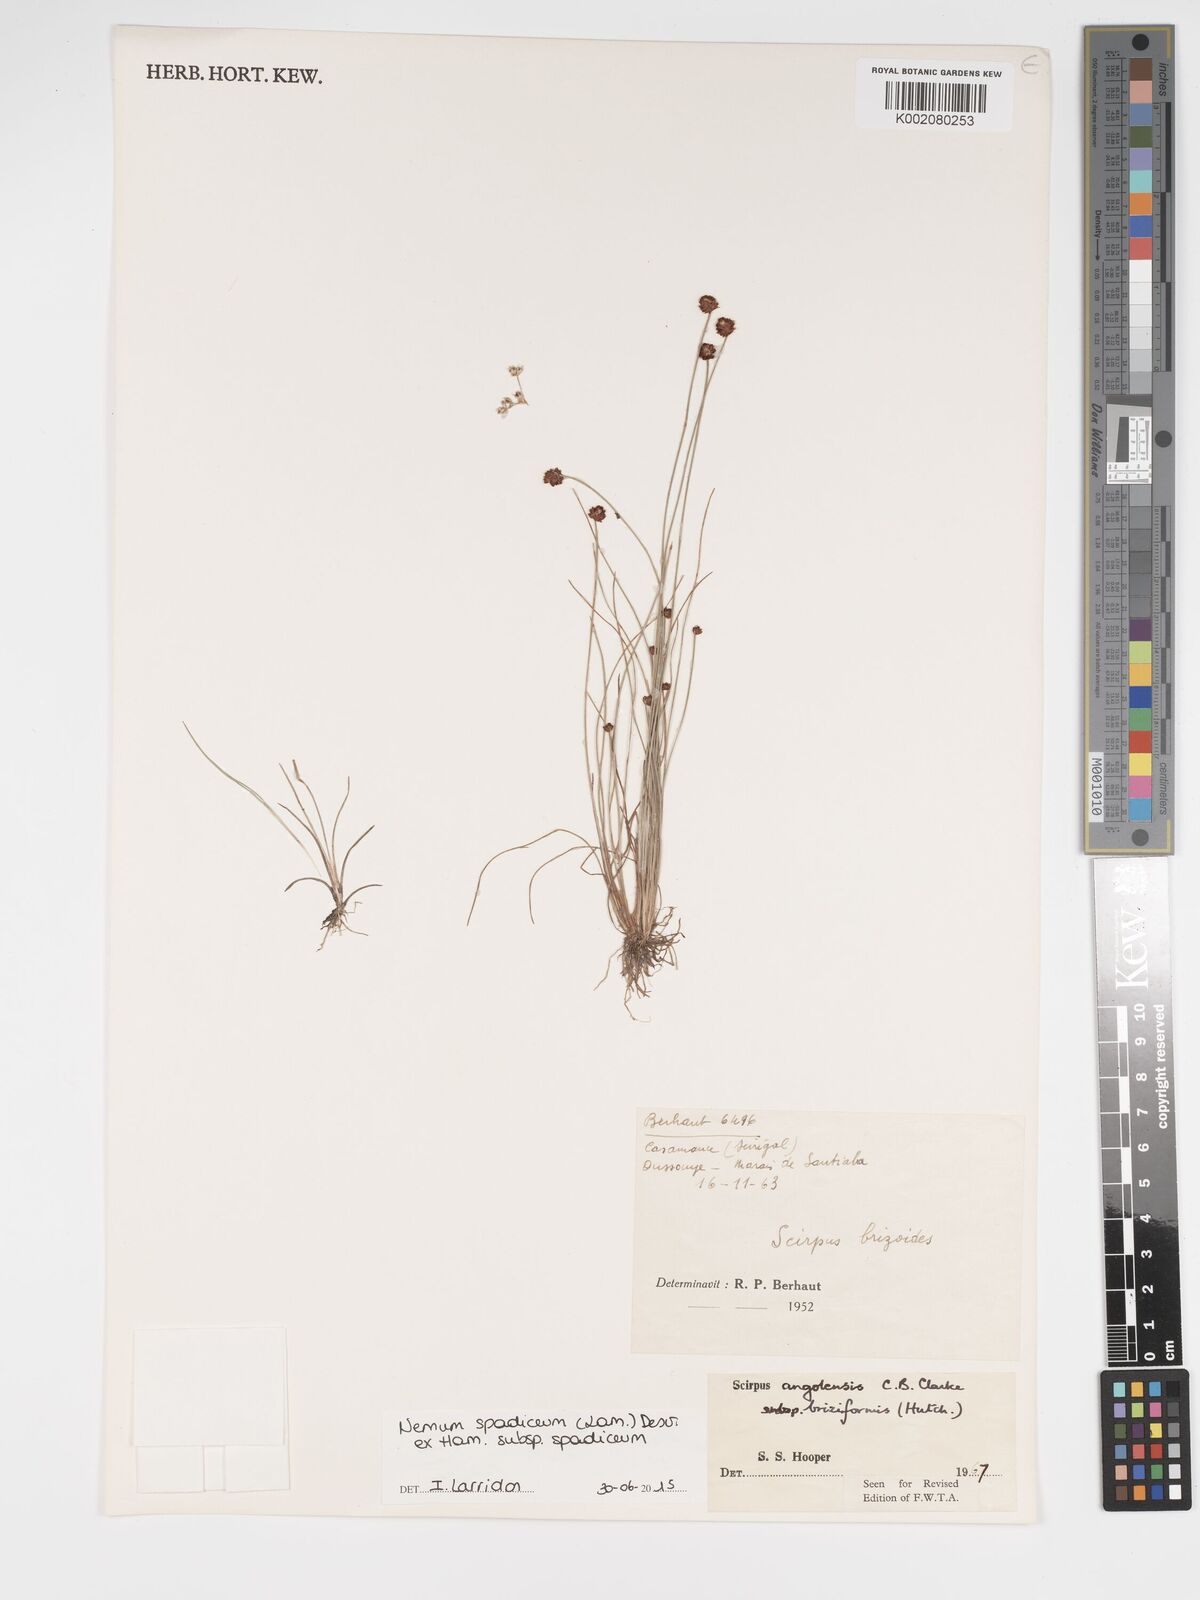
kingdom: Plantae
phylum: Tracheophyta
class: Liliopsida
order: Poales
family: Cyperaceae
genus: Bulbostylis
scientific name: Bulbostylis briziformis
